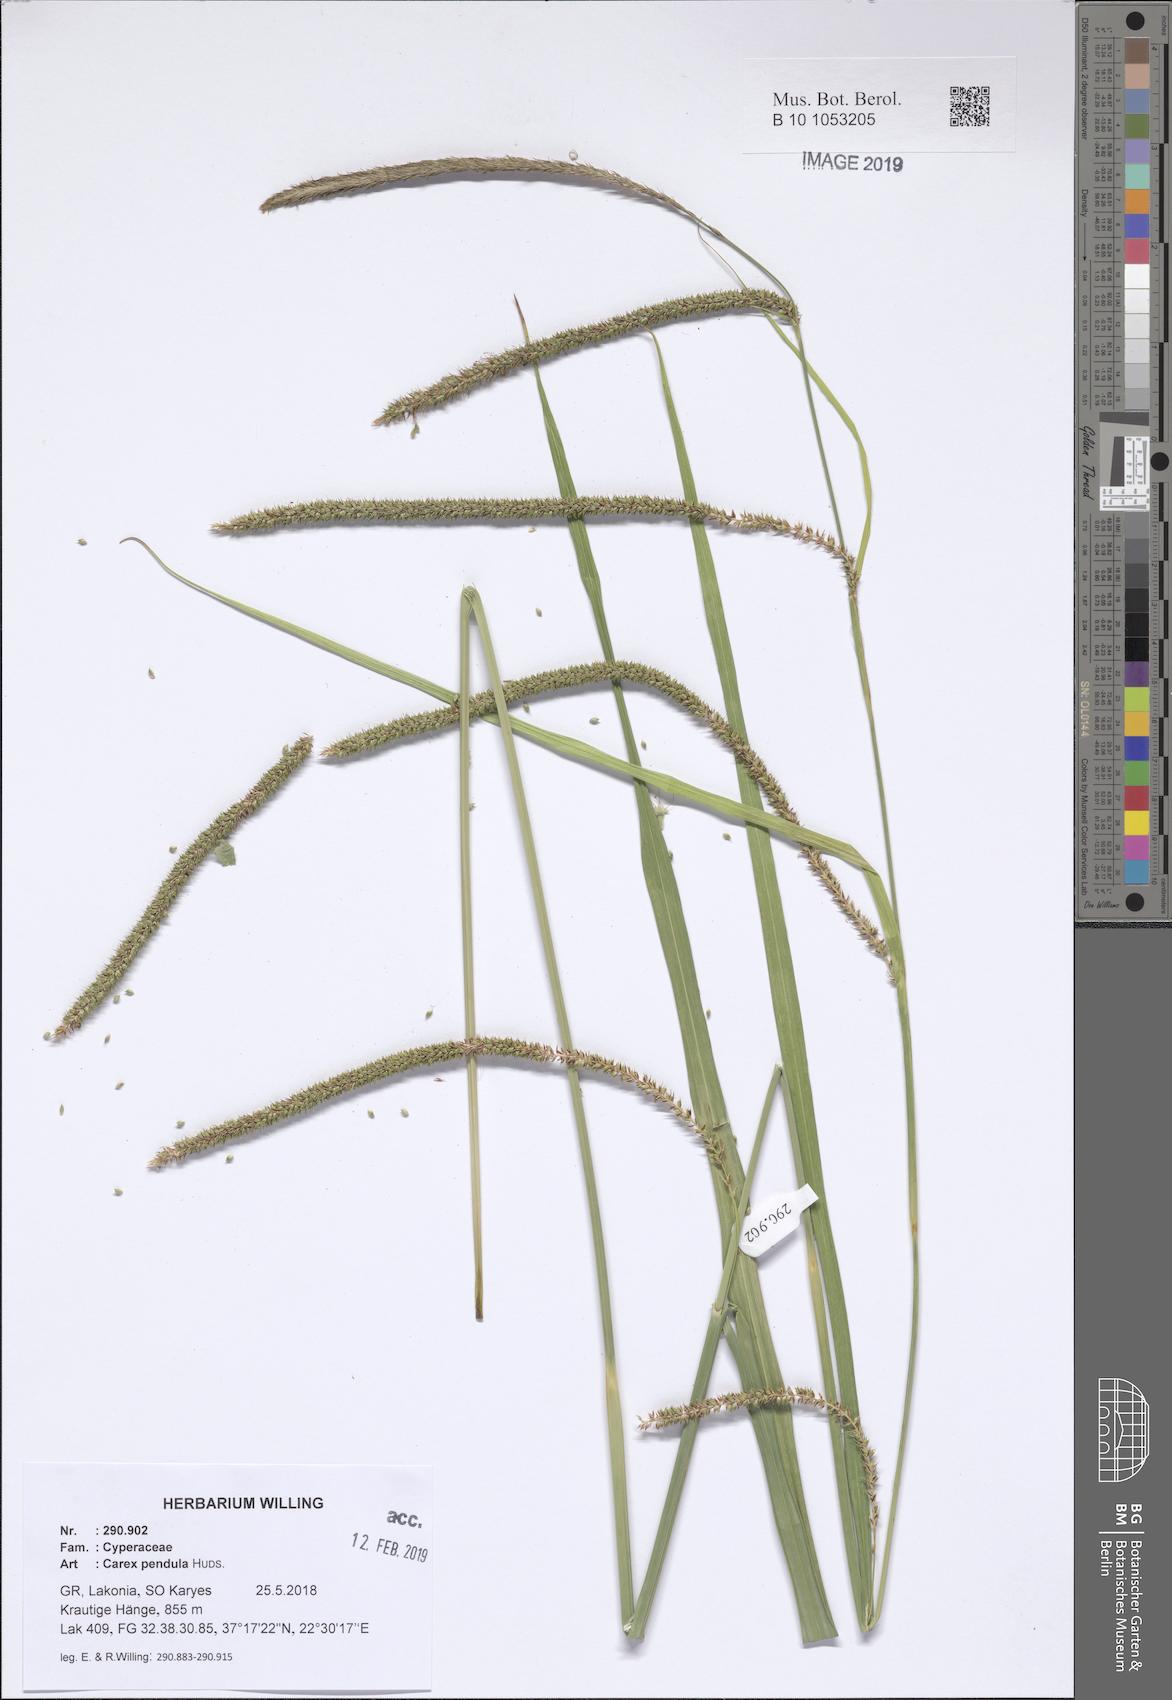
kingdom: Plantae
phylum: Tracheophyta
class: Liliopsida
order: Poales
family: Cyperaceae
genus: Carex
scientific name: Carex pendula
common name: Pendulous sedge
